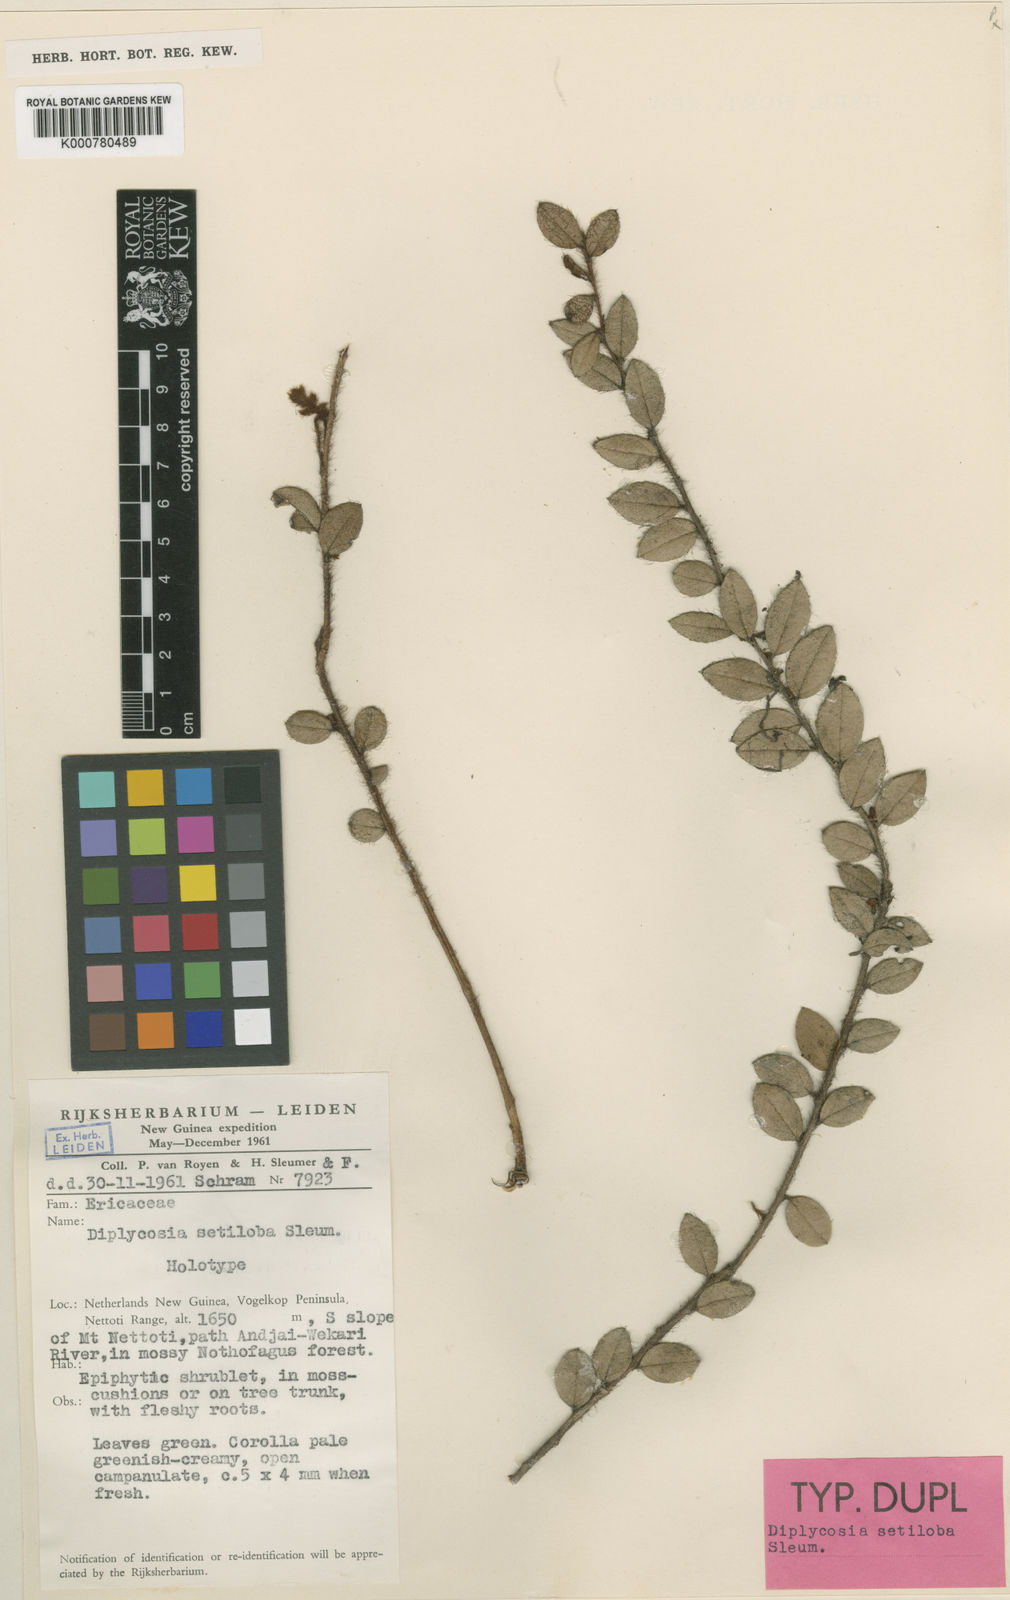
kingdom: Plantae
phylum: Tracheophyta
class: Magnoliopsida
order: Ericales
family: Ericaceae
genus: Gaultheria
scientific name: Gaultheria setiloba
